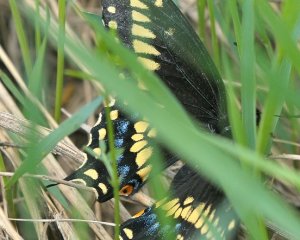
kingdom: Animalia
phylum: Arthropoda
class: Insecta
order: Lepidoptera
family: Papilionidae
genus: Papilio
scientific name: Papilio polyxenes
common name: Black Swallowtail
